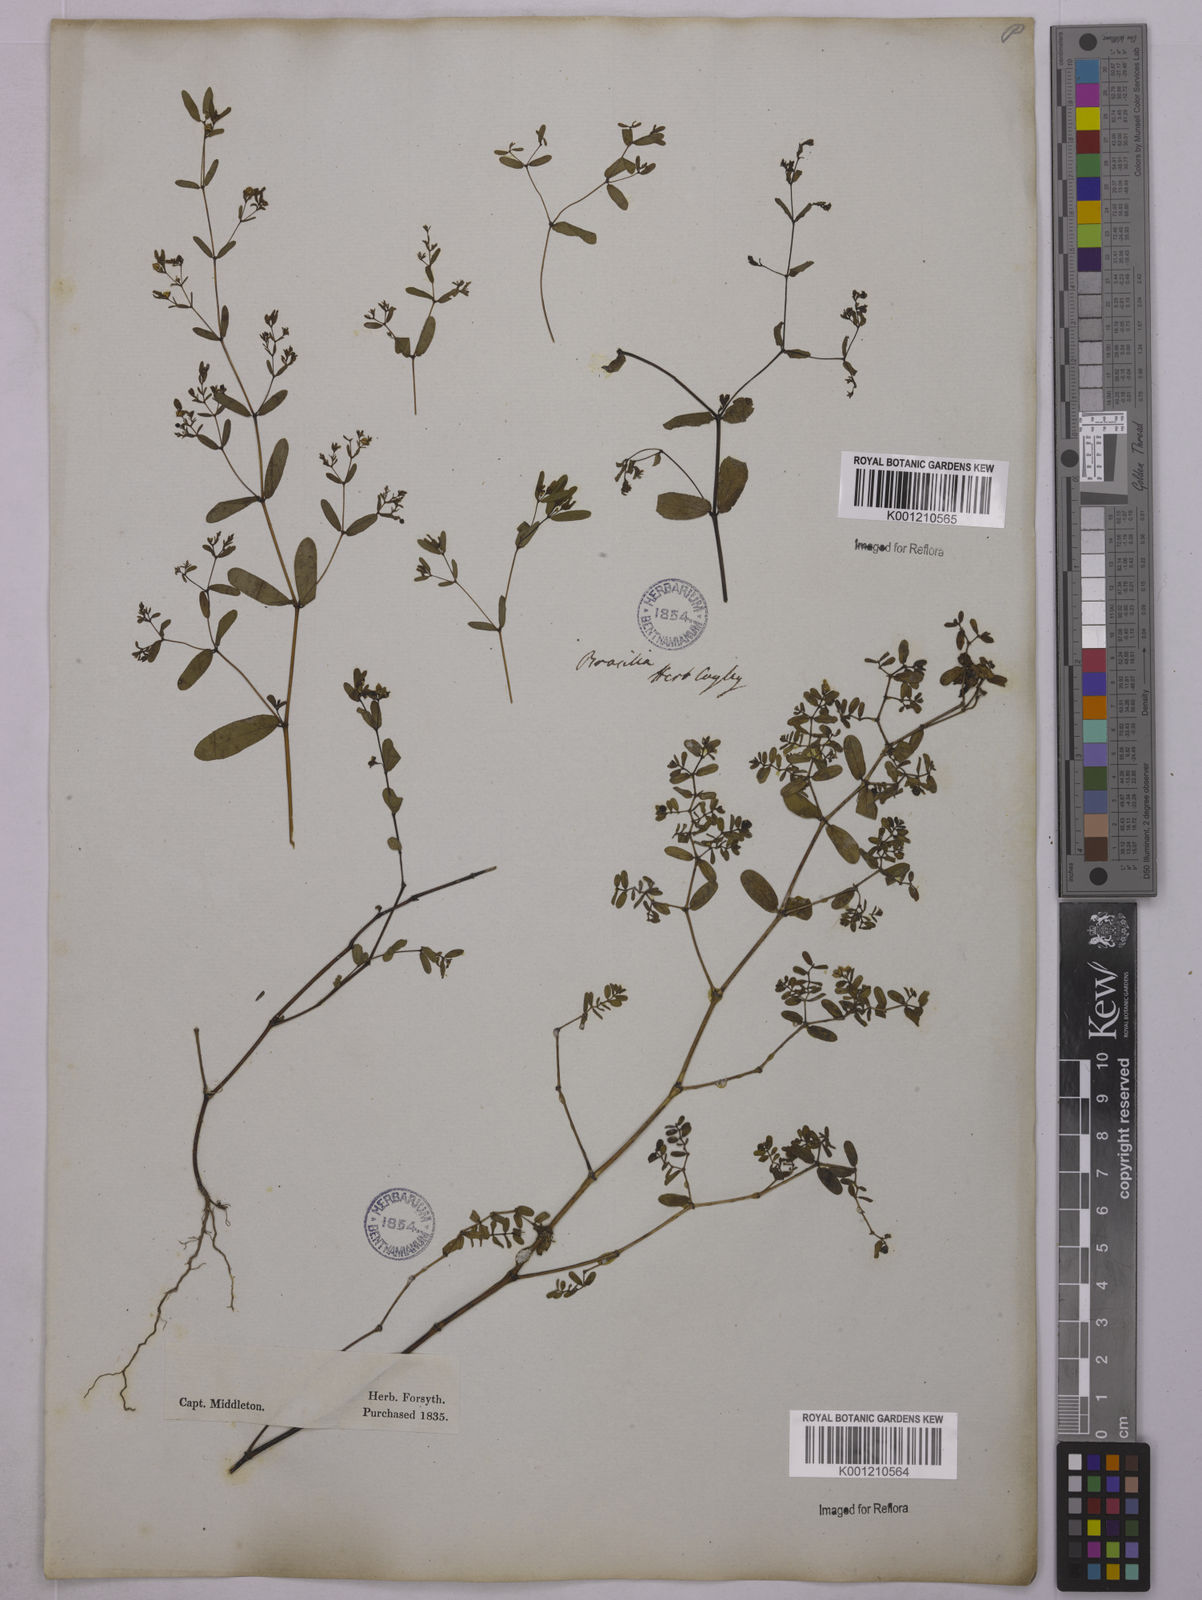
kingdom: Plantae
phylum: Tracheophyta
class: Magnoliopsida
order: Malpighiales
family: Euphorbiaceae
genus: Euphorbia
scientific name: Euphorbia hyssopifolia
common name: Hyssopleaf sandmat
